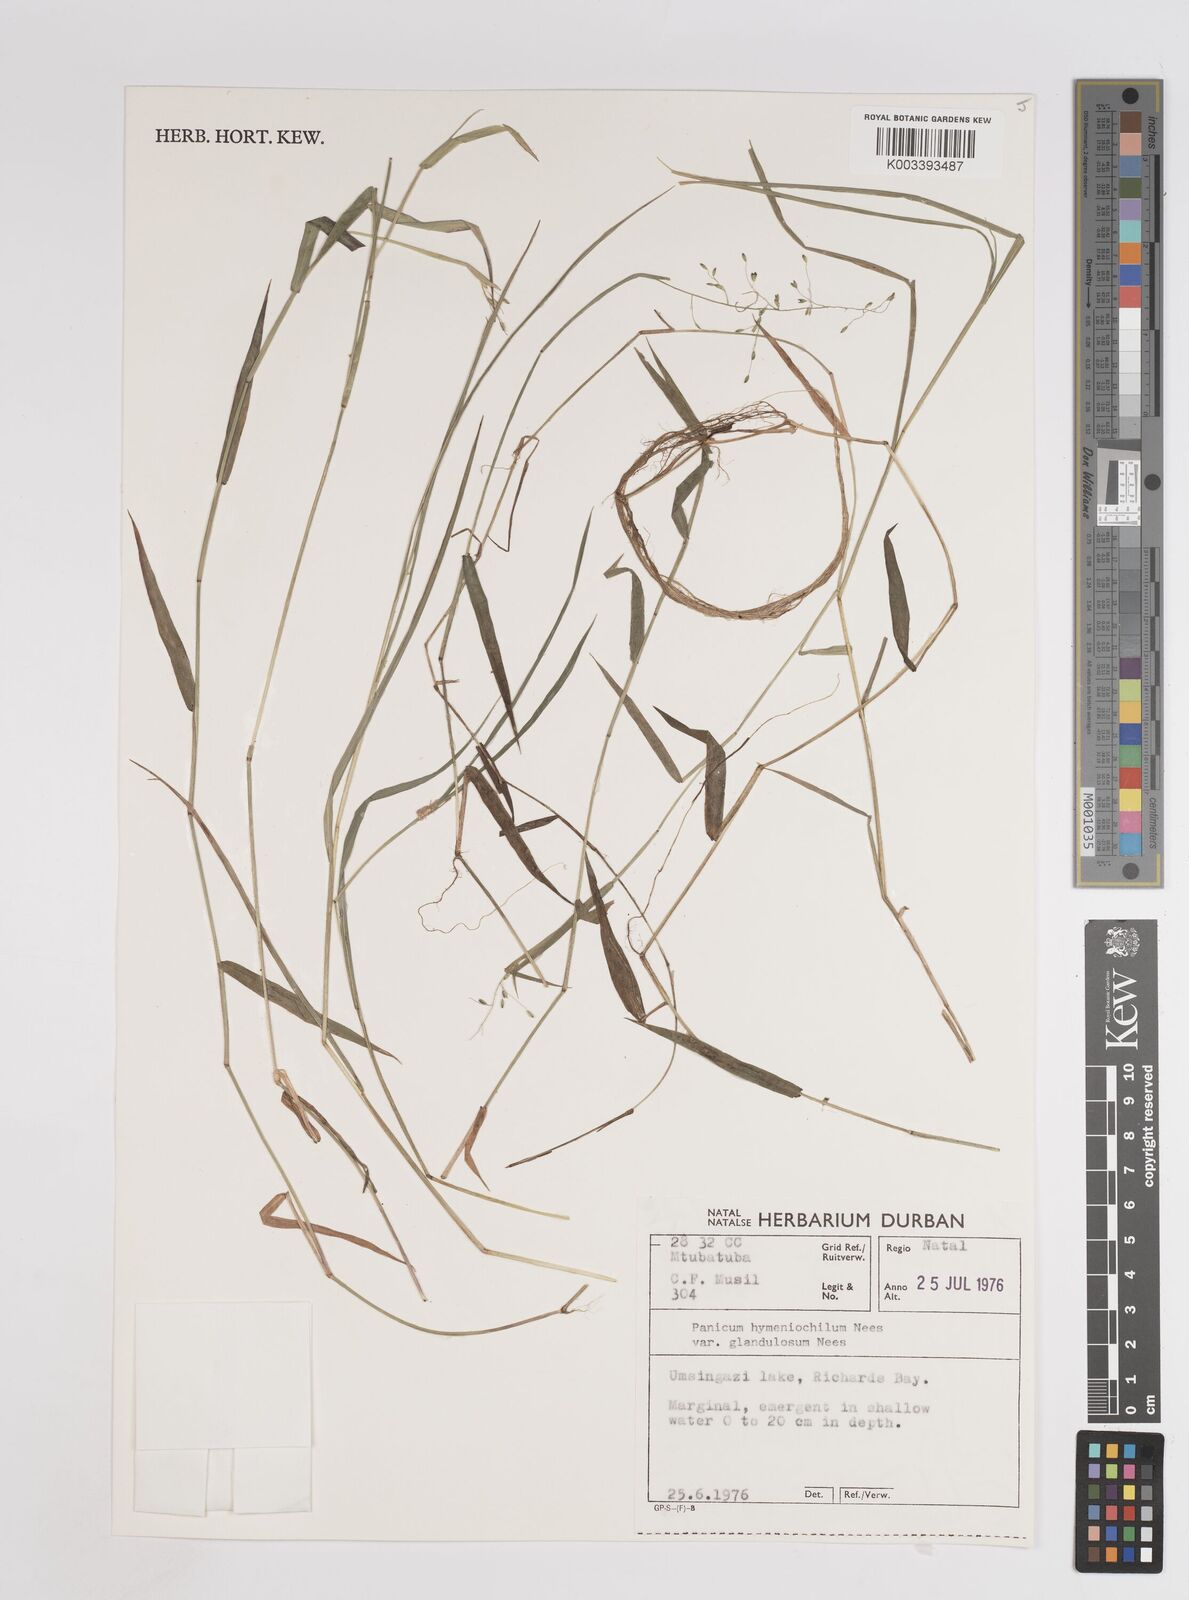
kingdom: Plantae
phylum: Tracheophyta
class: Liliopsida
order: Poales
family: Poaceae
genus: Adenochloa
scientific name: Adenochloa hymeniochila
